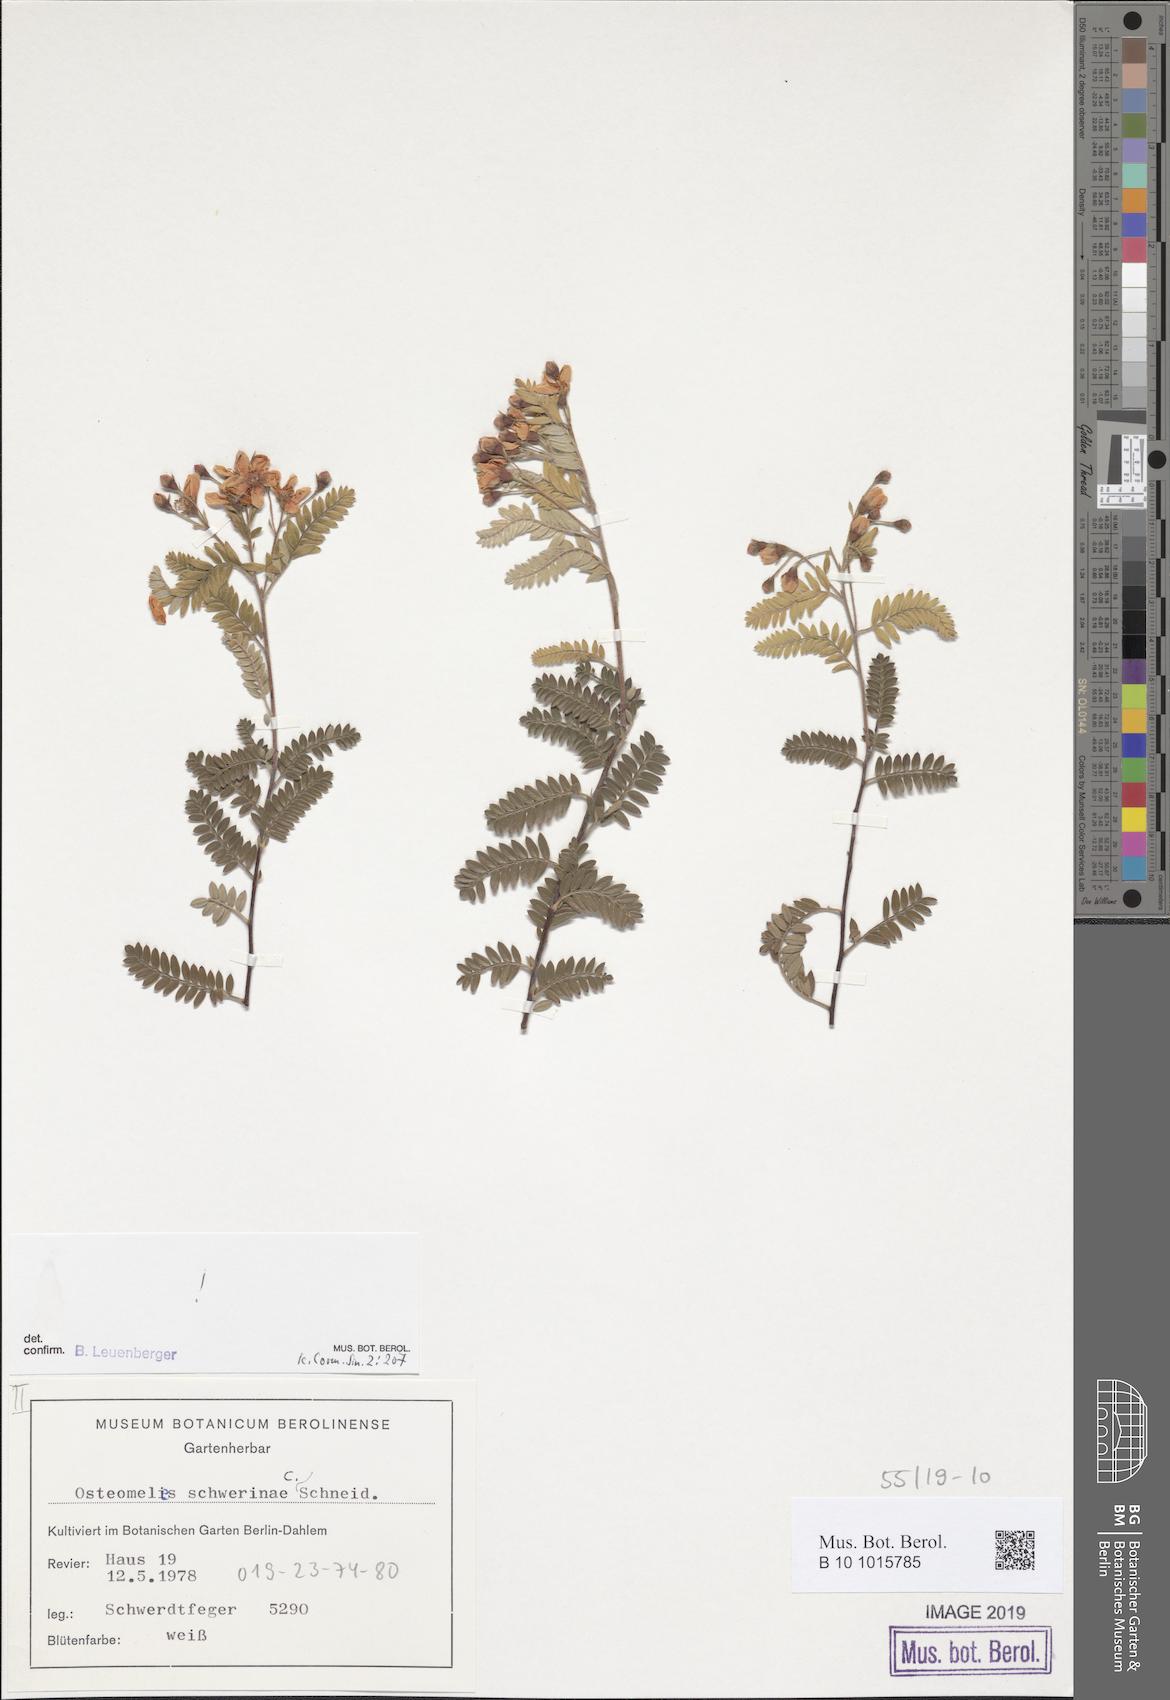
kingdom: Plantae
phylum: Tracheophyta
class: Magnoliopsida
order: Rosales
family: Rosaceae
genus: Osteomeles
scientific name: Osteomeles schwerinae
